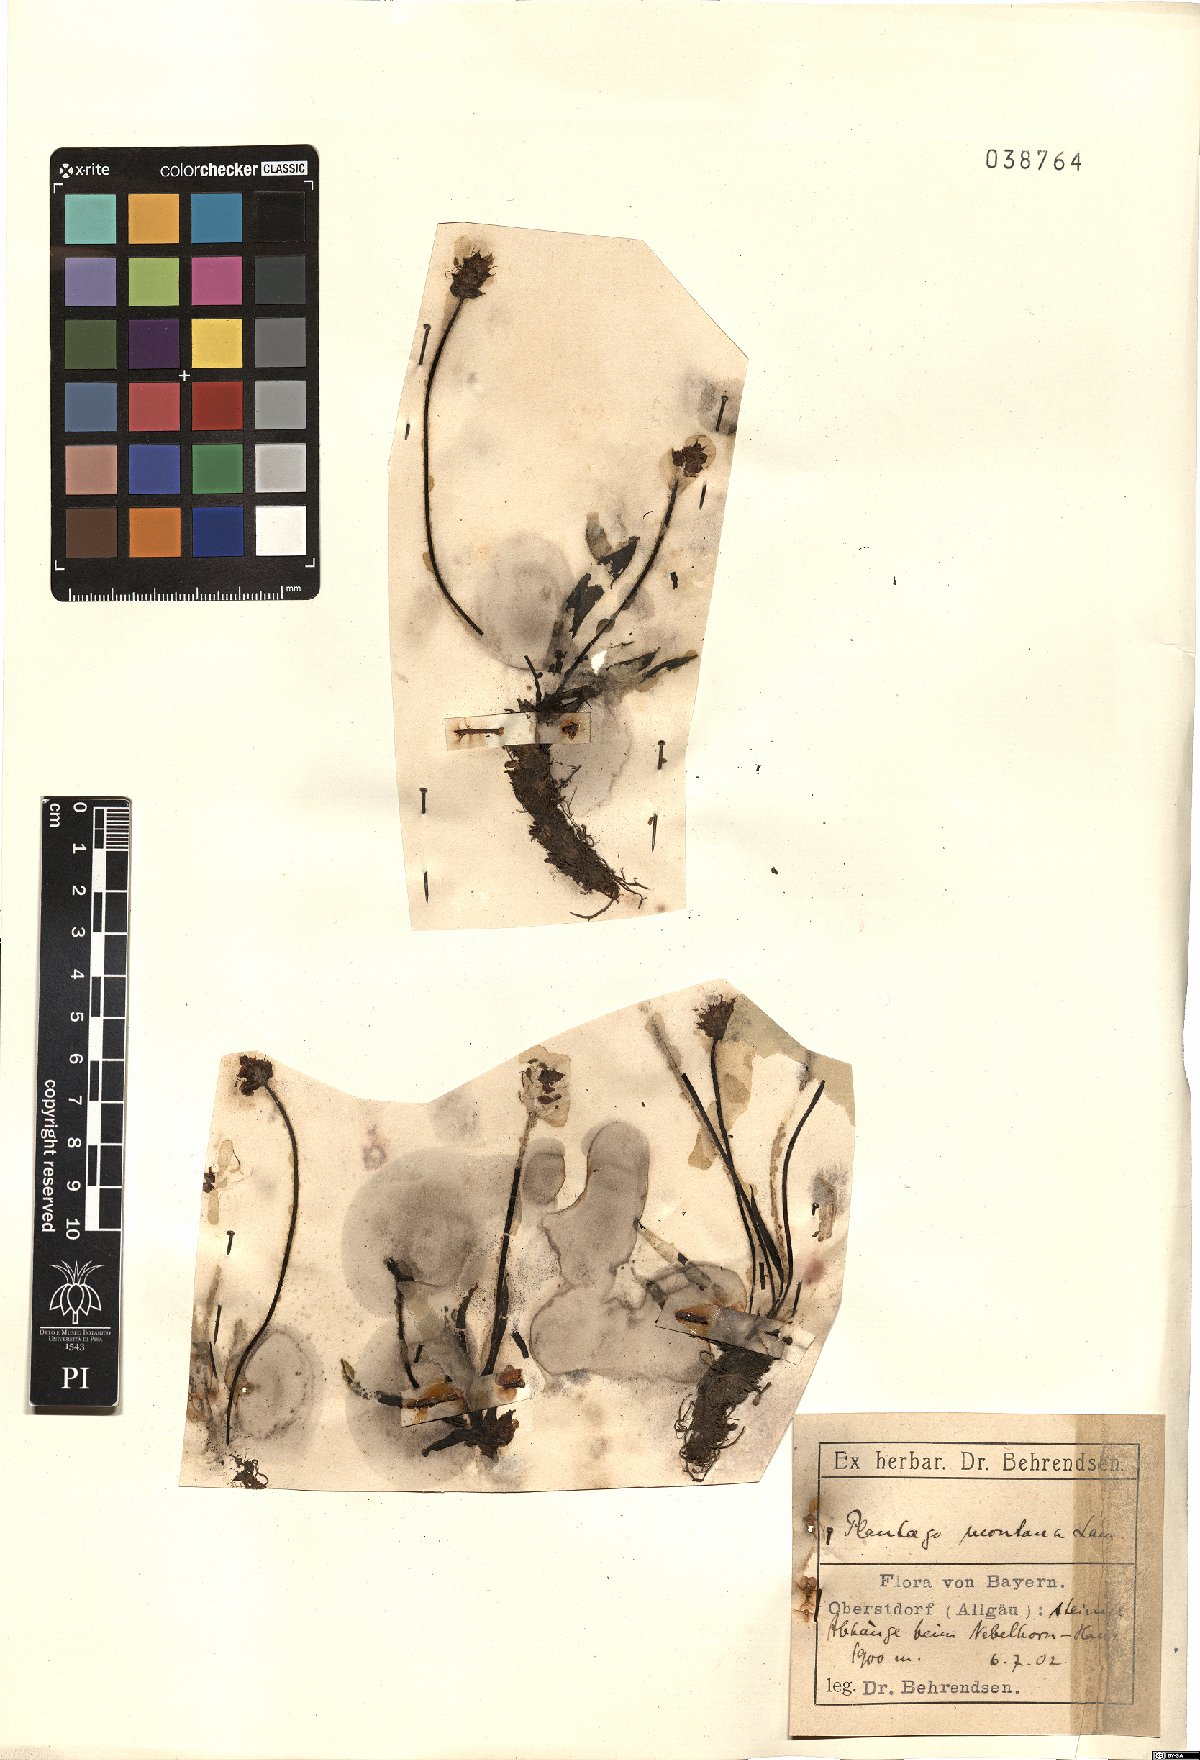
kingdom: Plantae
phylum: Tracheophyta
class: Magnoliopsida
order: Lamiales
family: Plantaginaceae
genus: Plantago
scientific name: Plantago atrata
